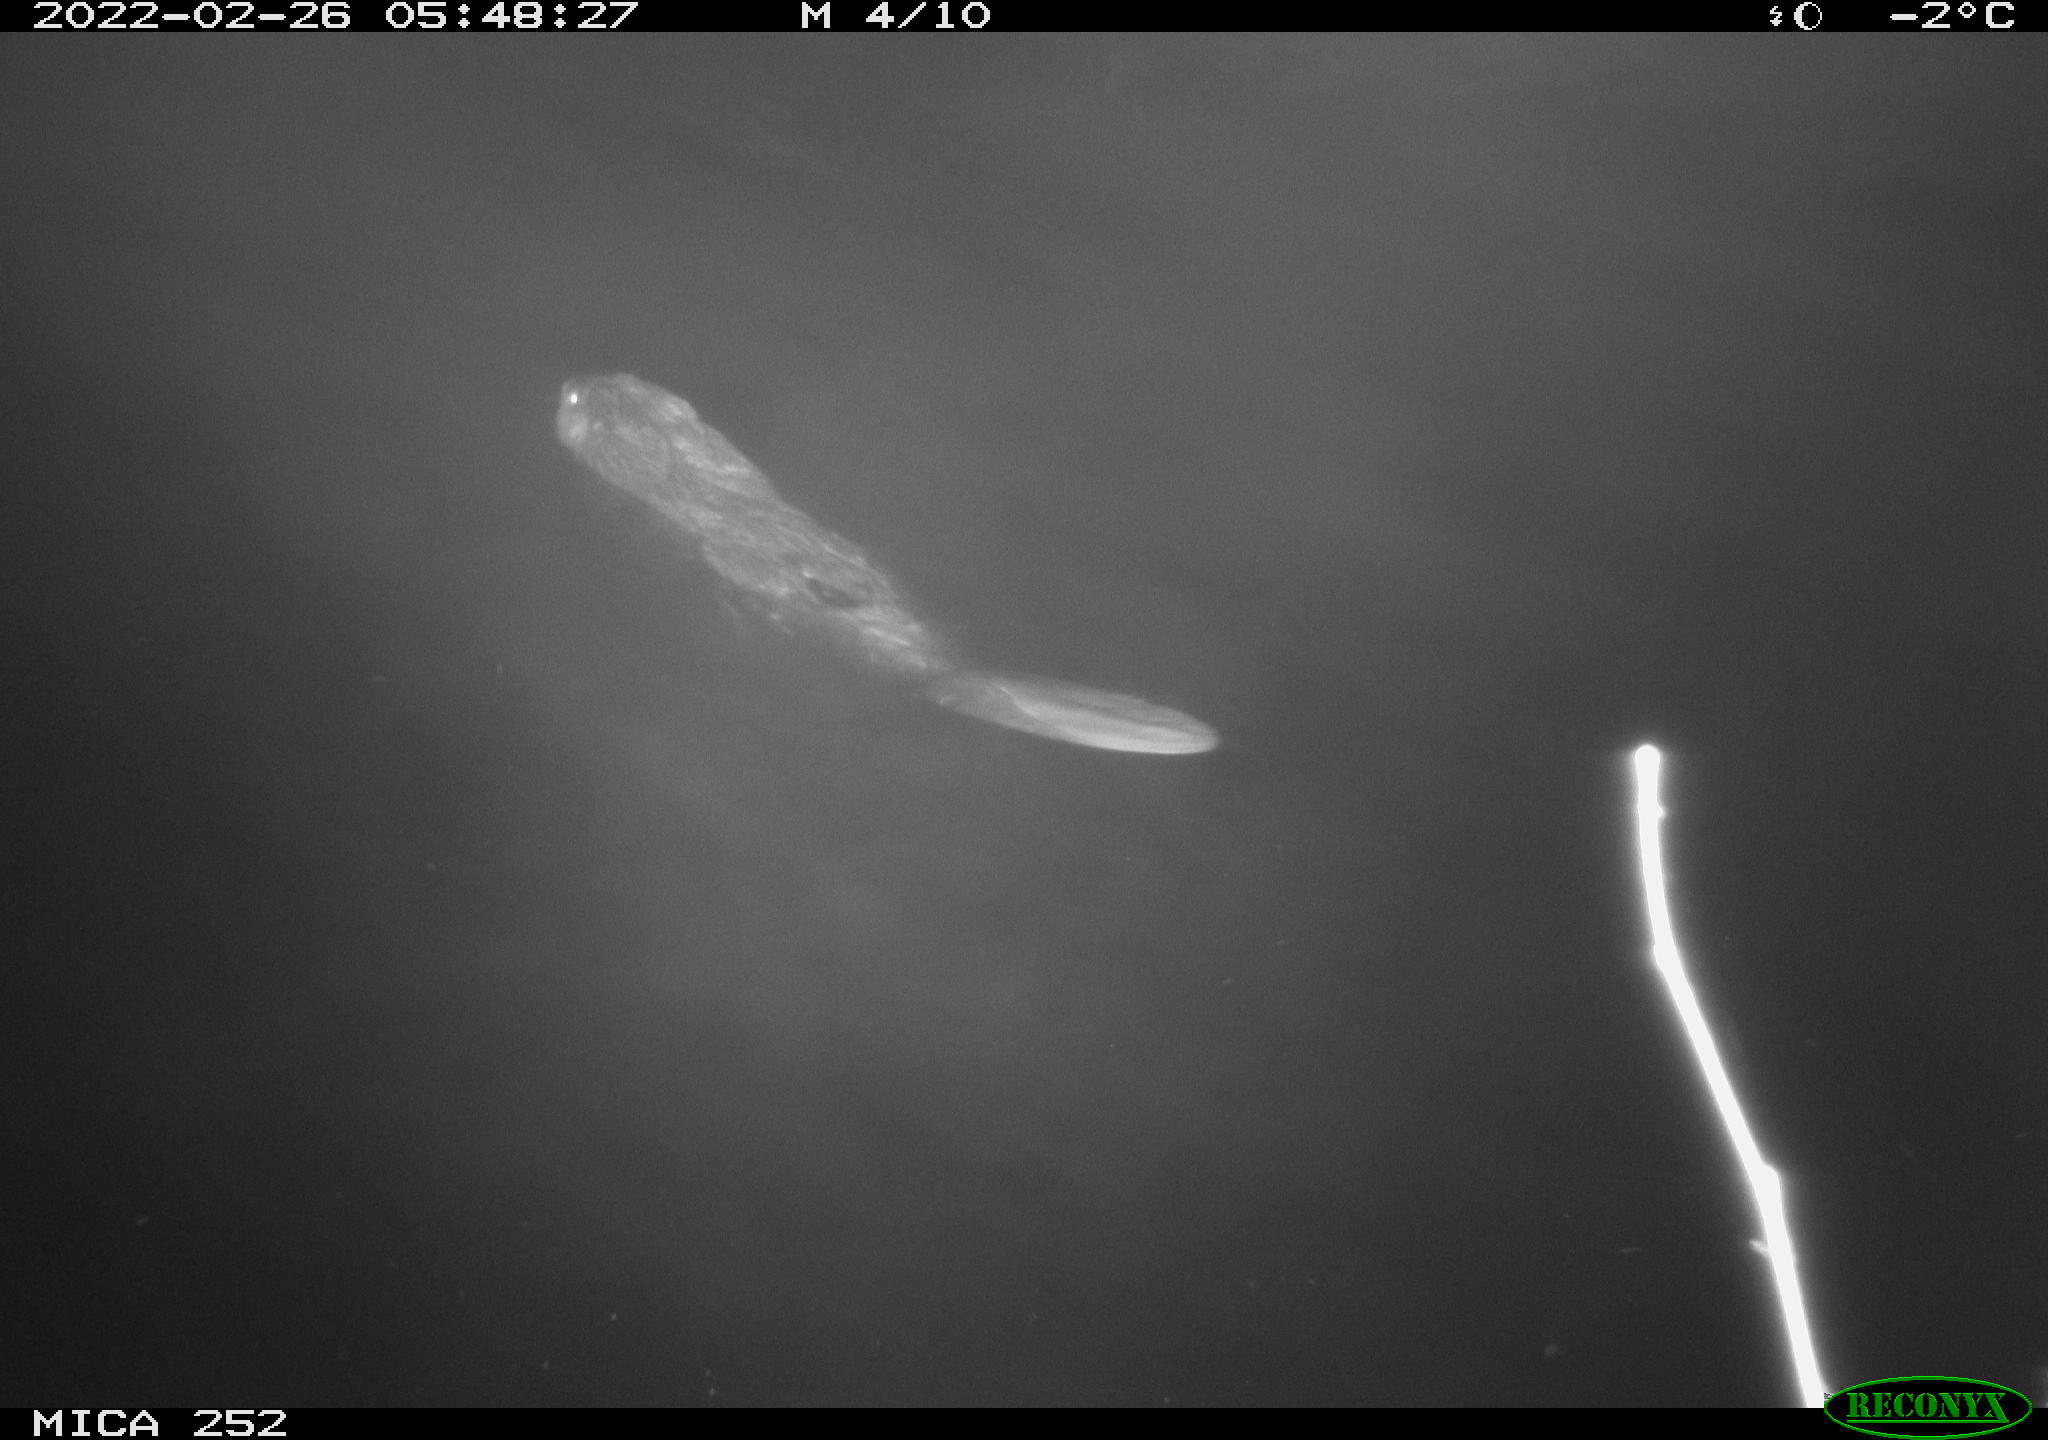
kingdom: Animalia
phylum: Chordata
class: Mammalia
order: Rodentia
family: Castoridae
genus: Castor
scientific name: Castor fiber
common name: Eurasian beaver
